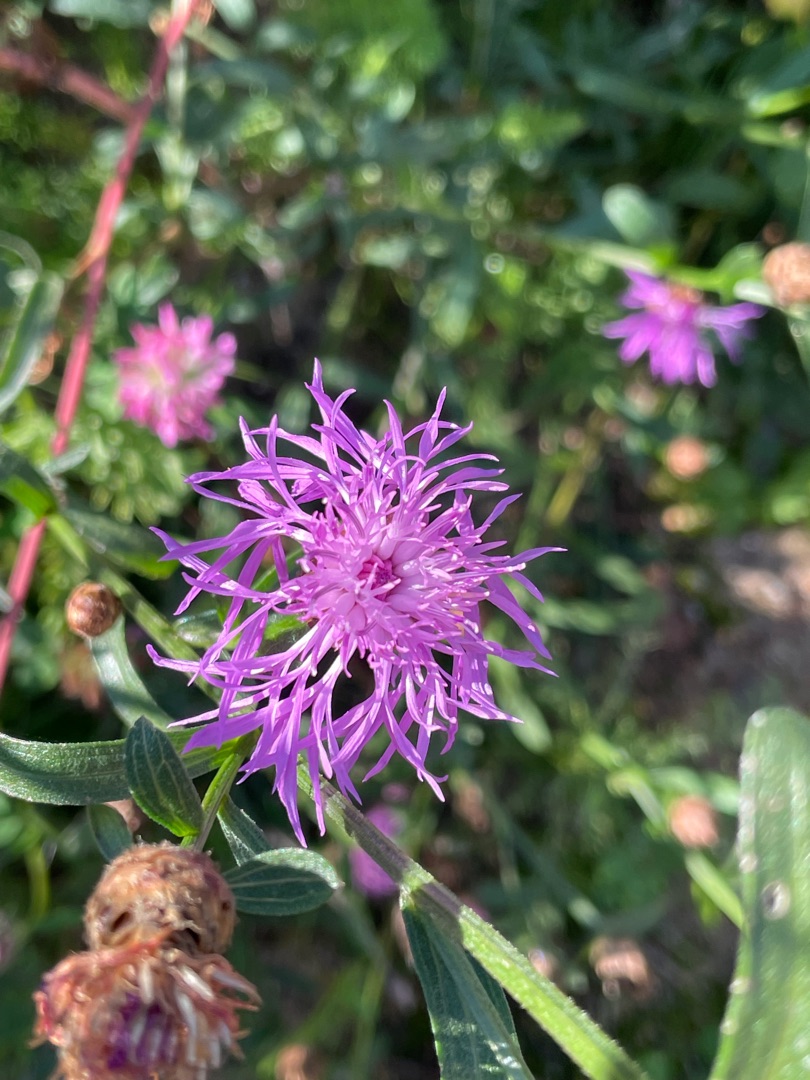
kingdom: Plantae
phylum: Tracheophyta
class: Magnoliopsida
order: Asterales
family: Asteraceae
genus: Centaurea
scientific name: Centaurea jacea
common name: Almindelig knopurt
